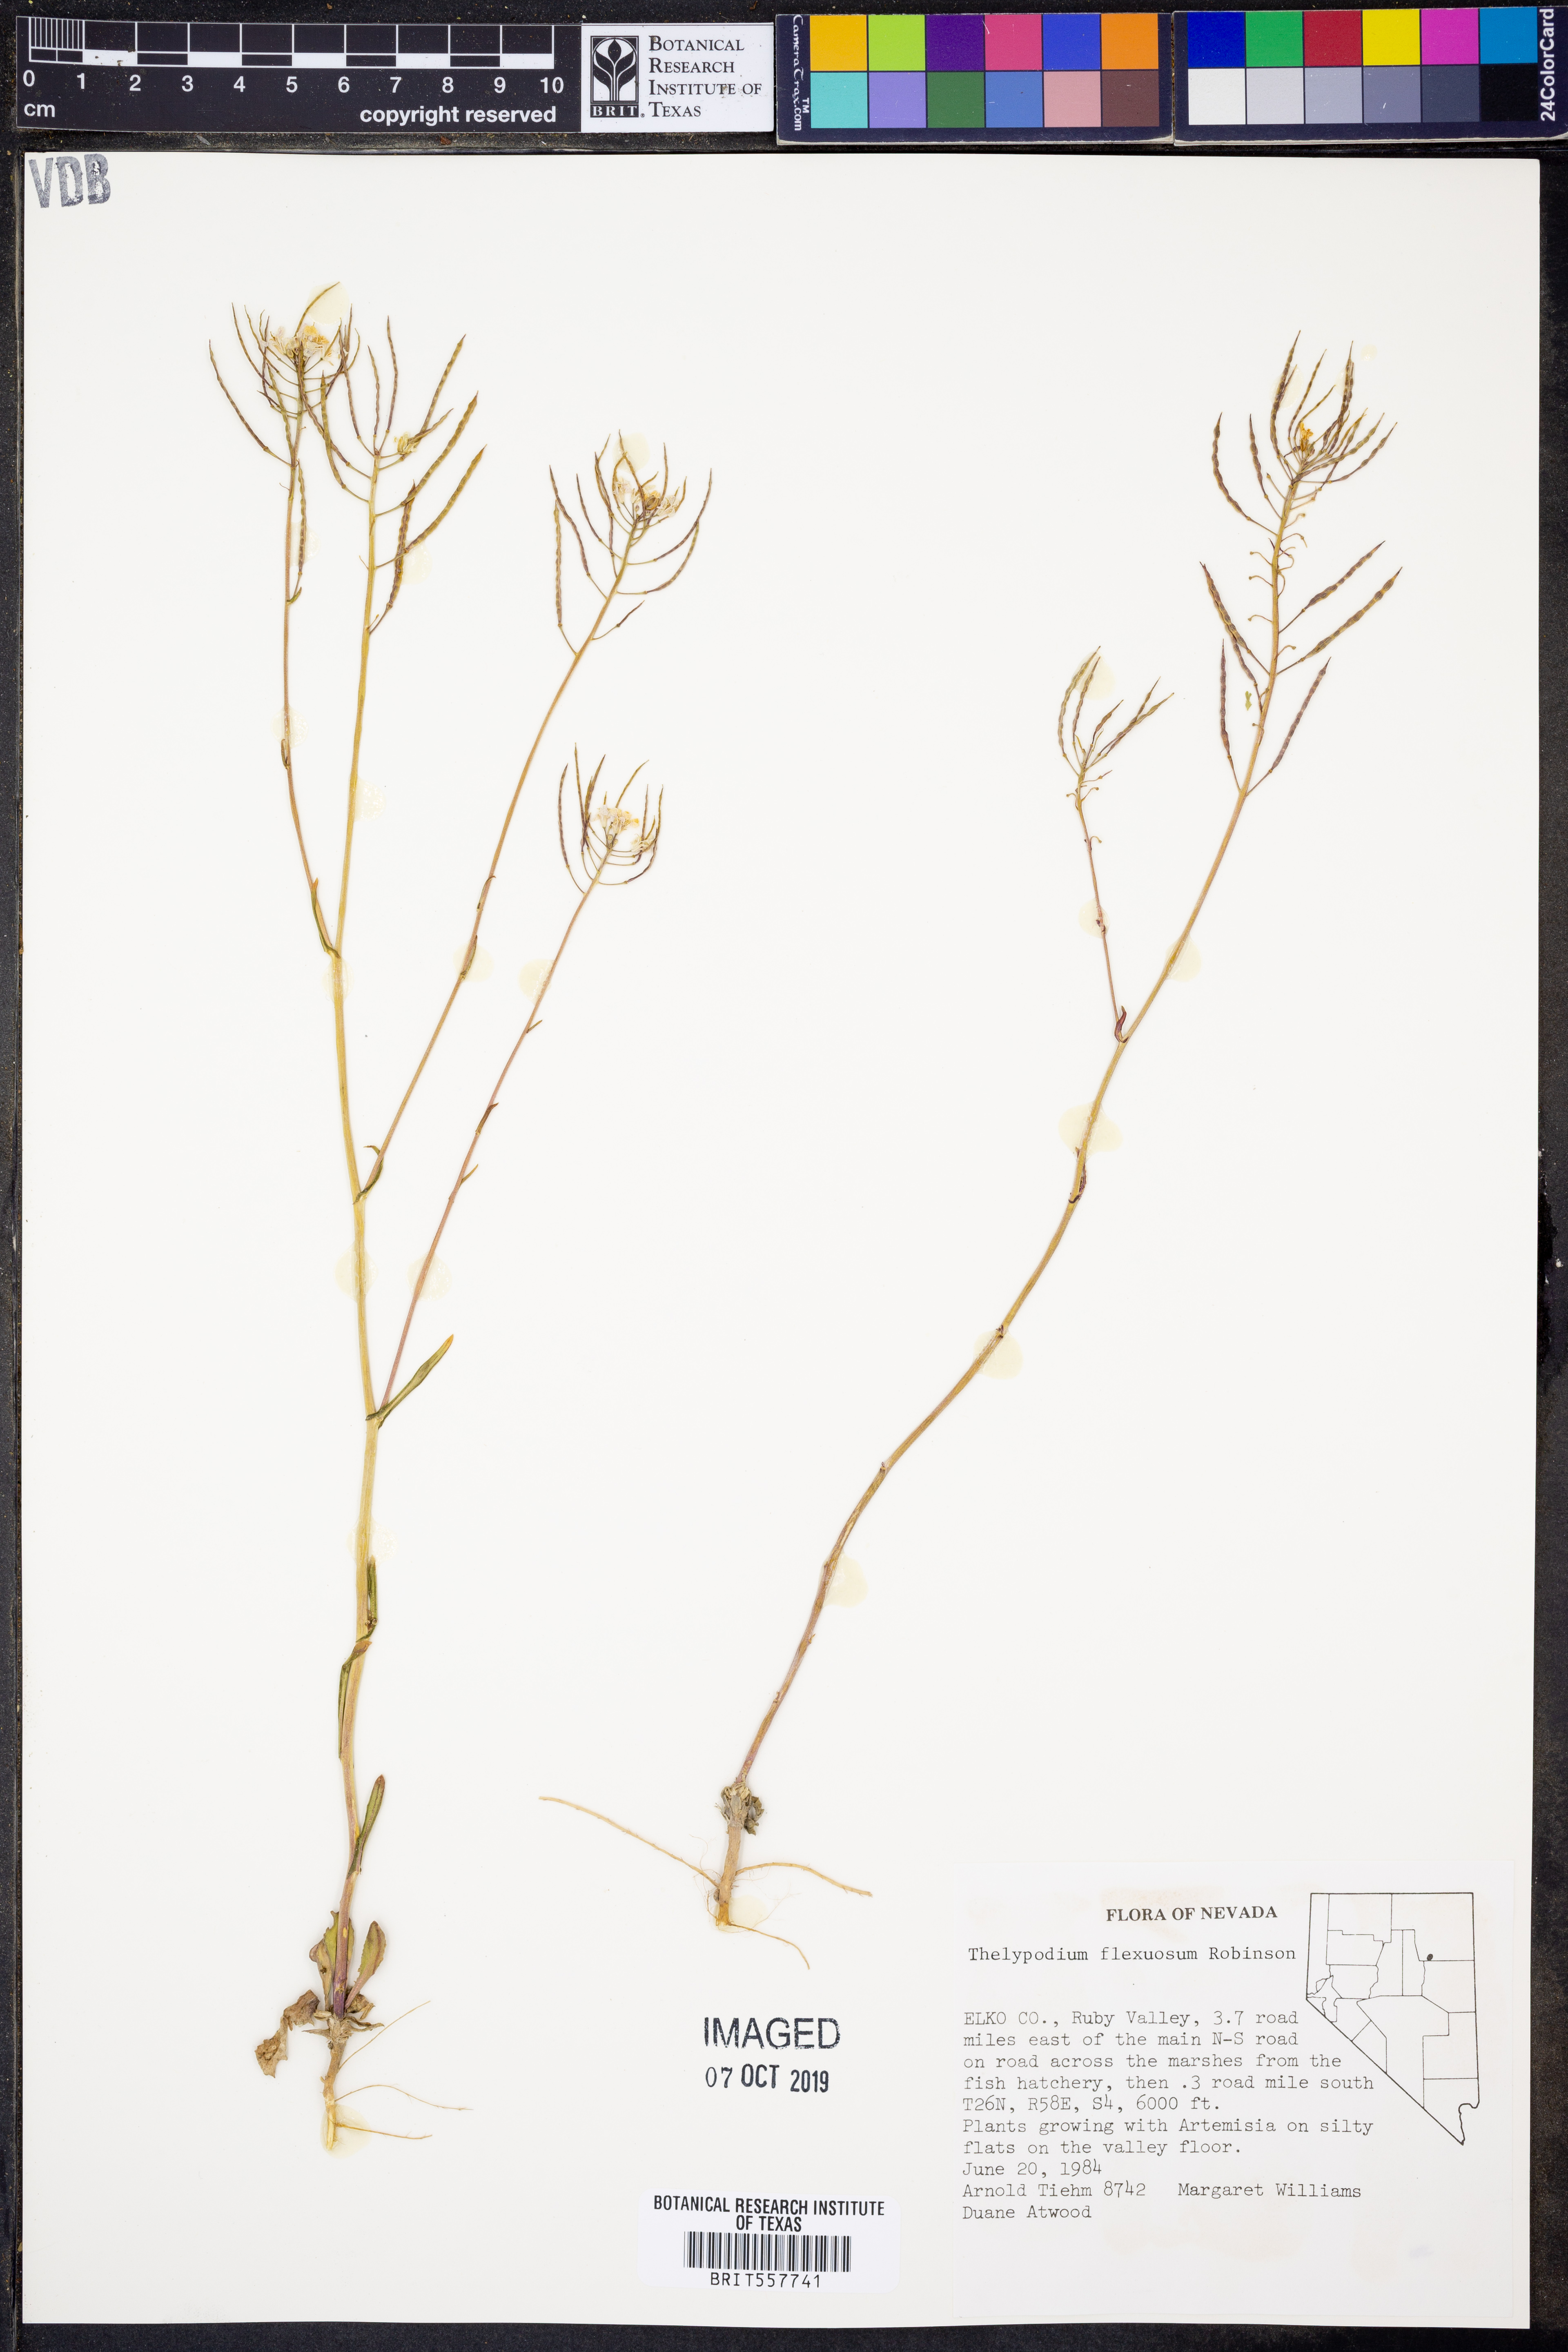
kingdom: Plantae
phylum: Tracheophyta
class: Magnoliopsida
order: Brassicales
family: Brassicaceae
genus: Thelypodium
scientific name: Thelypodium flexuosum
